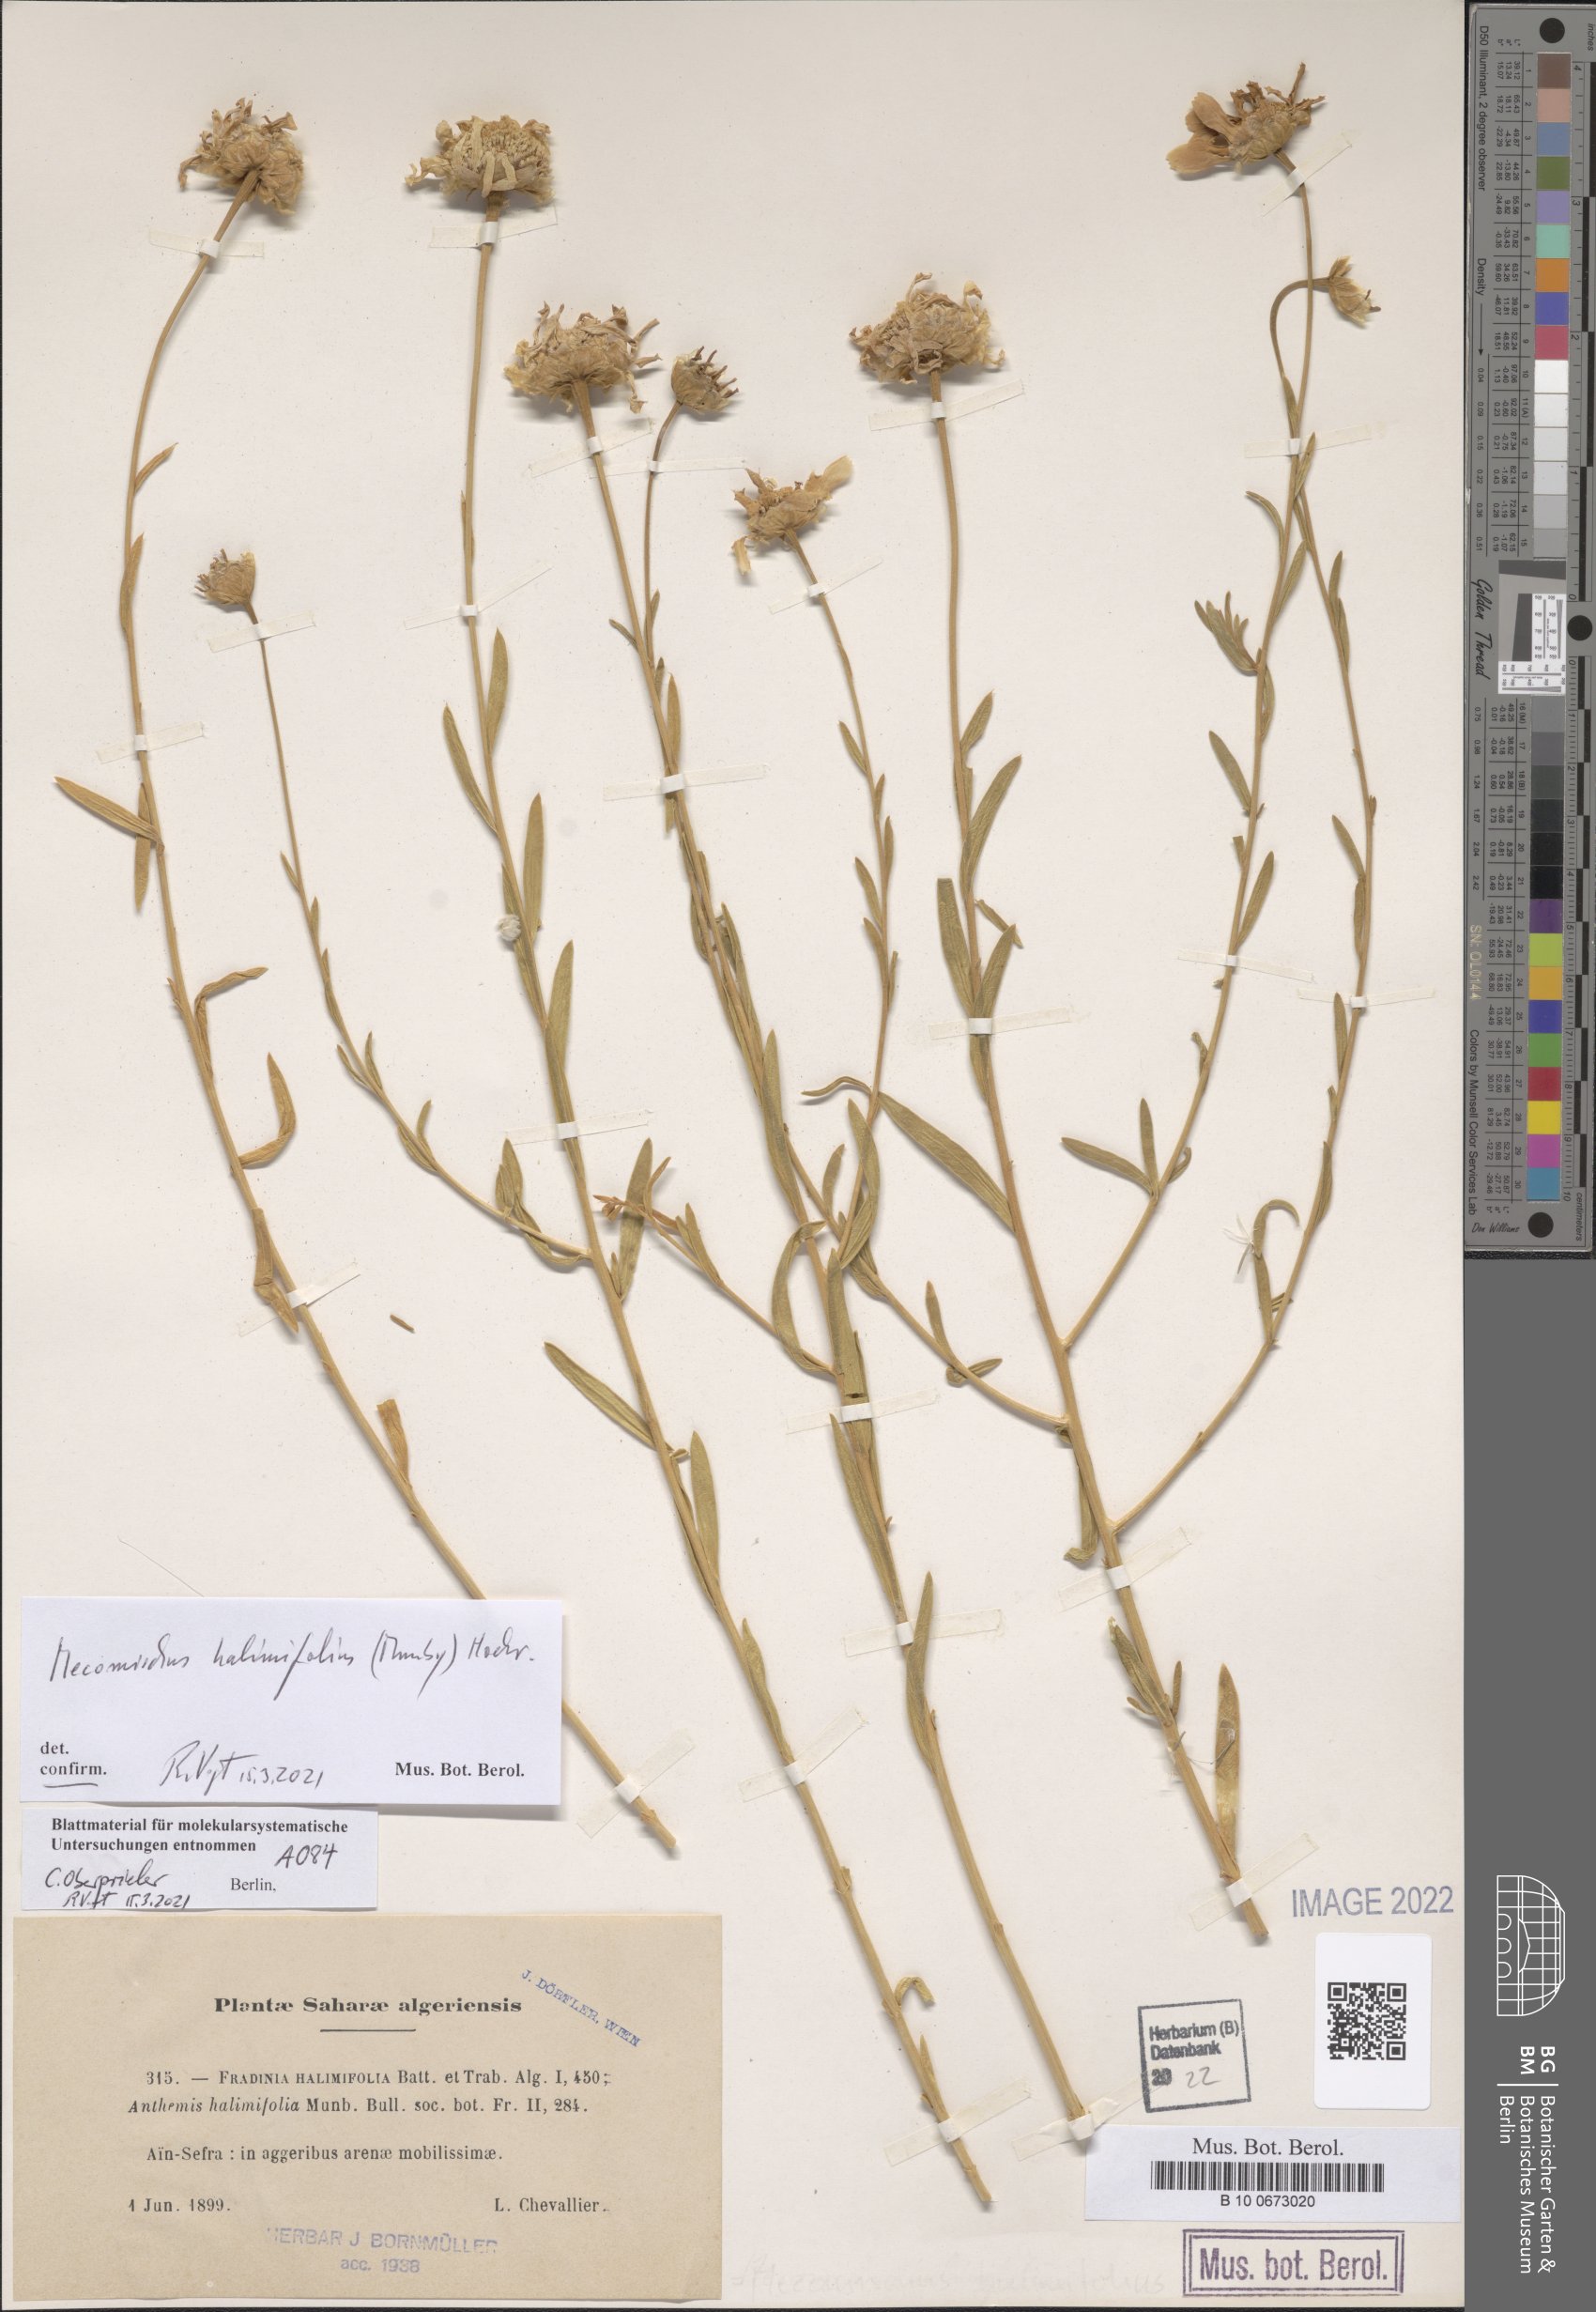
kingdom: Plantae
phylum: Tracheophyta
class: Magnoliopsida
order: Asterales
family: Asteraceae
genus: Mecomischus
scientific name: Mecomischus halimifolius
